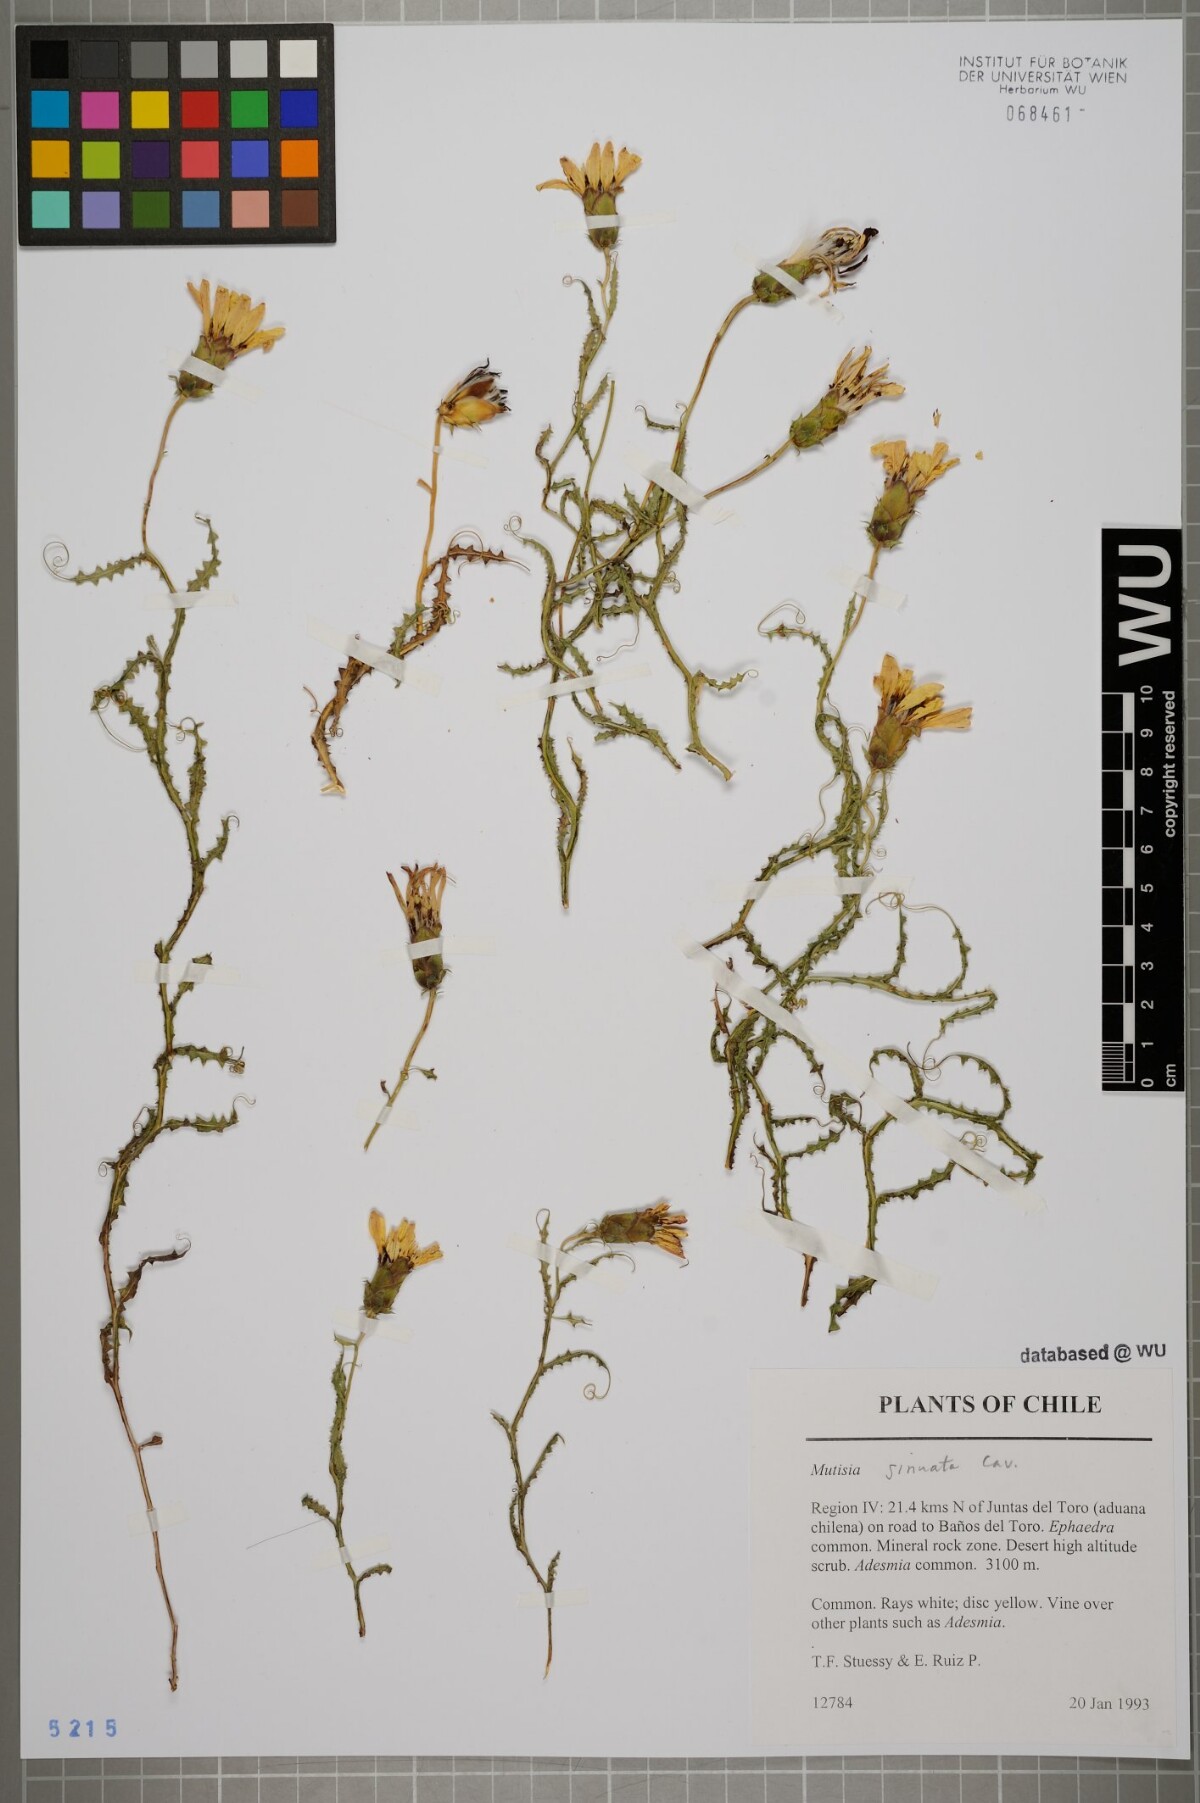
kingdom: Plantae
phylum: Tracheophyta
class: Magnoliopsida
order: Asterales
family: Asteraceae
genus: Mutisia
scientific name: Mutisia sinuata
